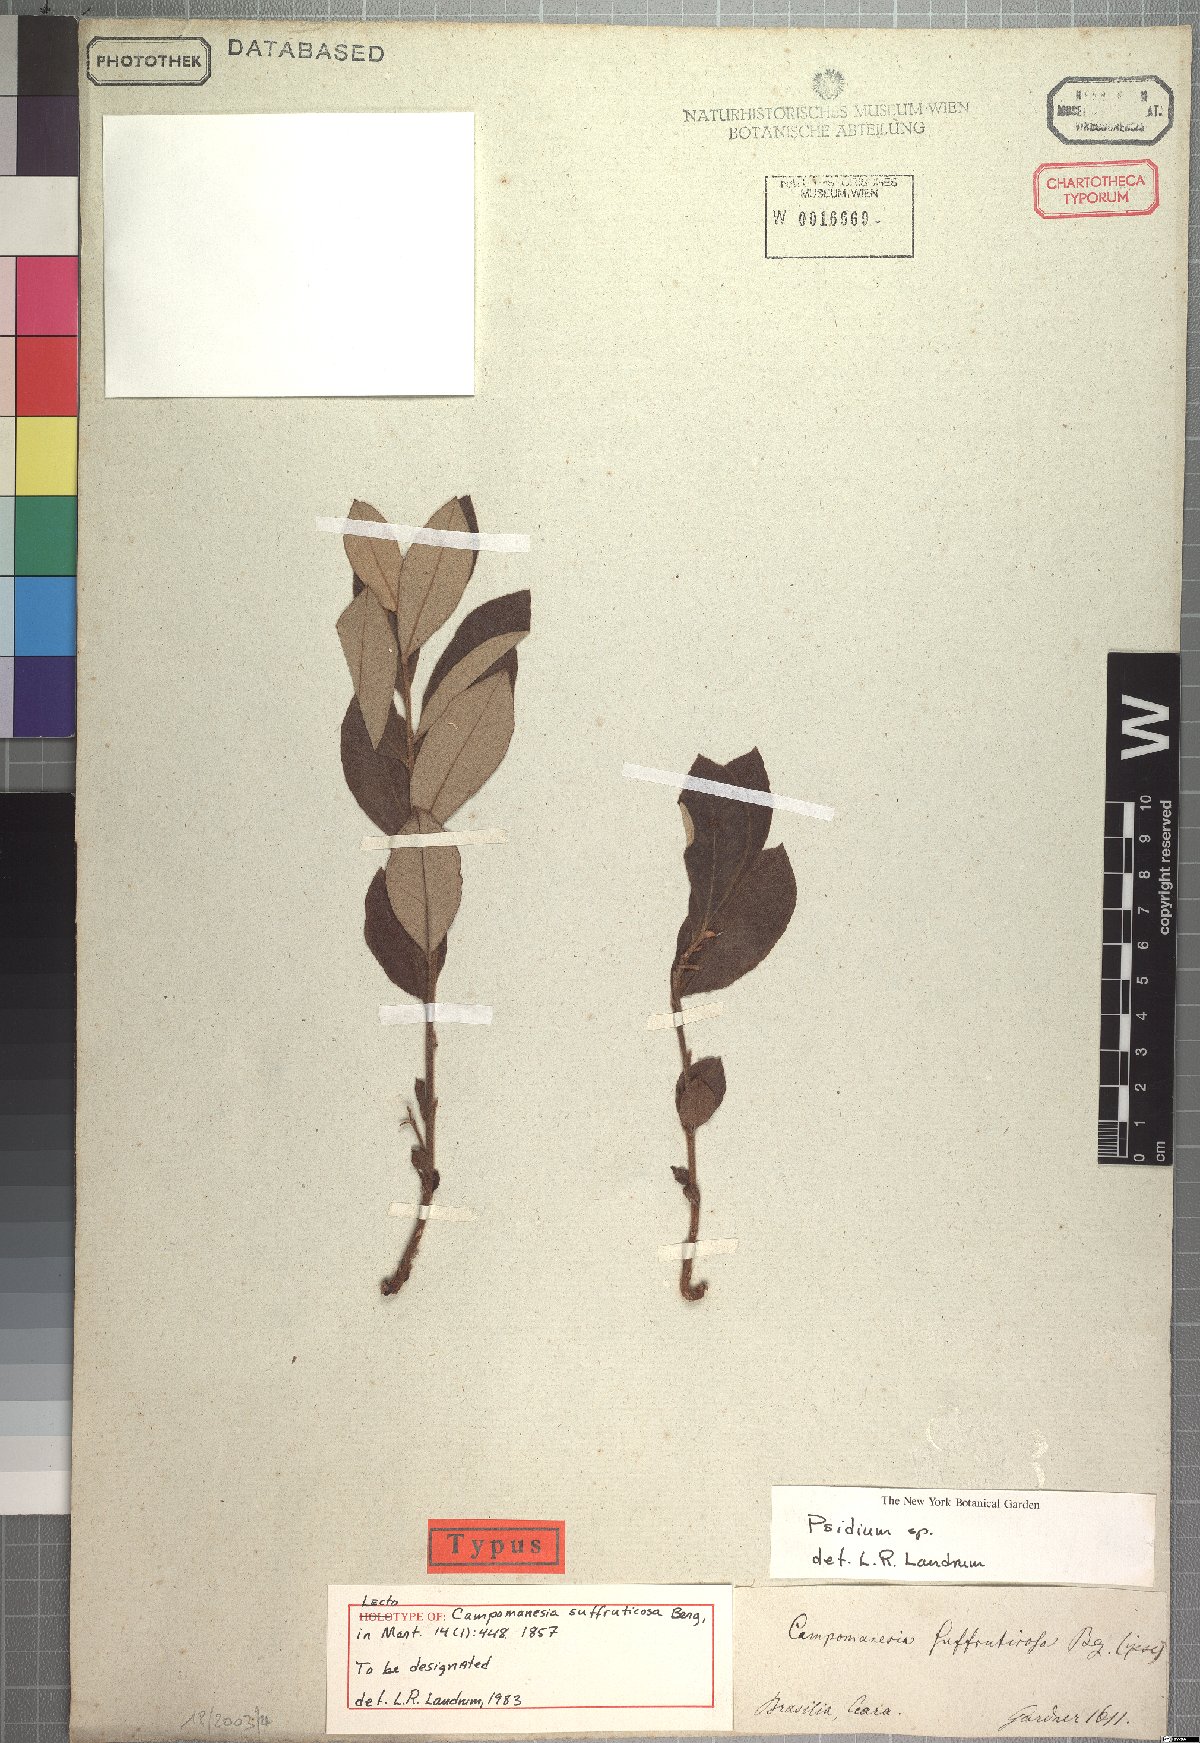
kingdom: Plantae
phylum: Tracheophyta
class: Magnoliopsida
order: Myrtales
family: Myrtaceae
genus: Psidium
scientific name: Psidium larueotteanum
